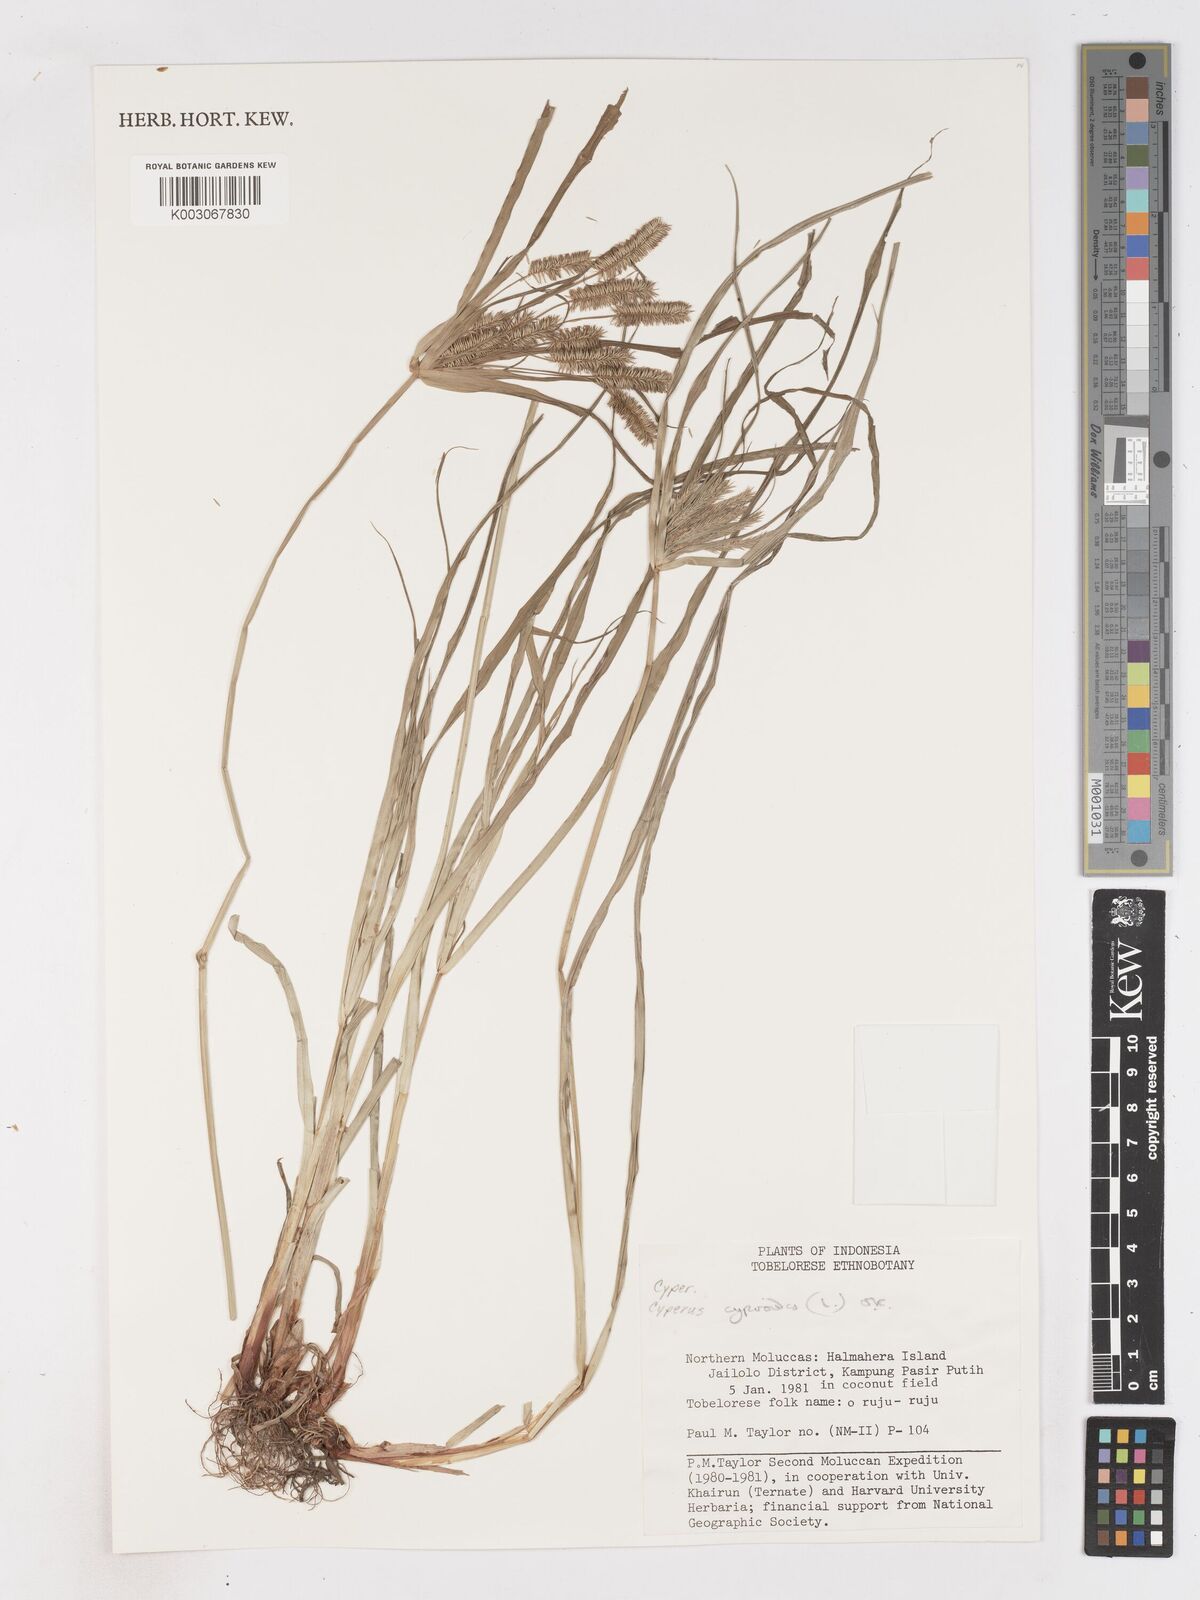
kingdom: Plantae
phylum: Tracheophyta
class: Liliopsida
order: Poales
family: Cyperaceae
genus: Cyperus
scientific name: Cyperus cyperoides
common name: Pacific island flat sedge
